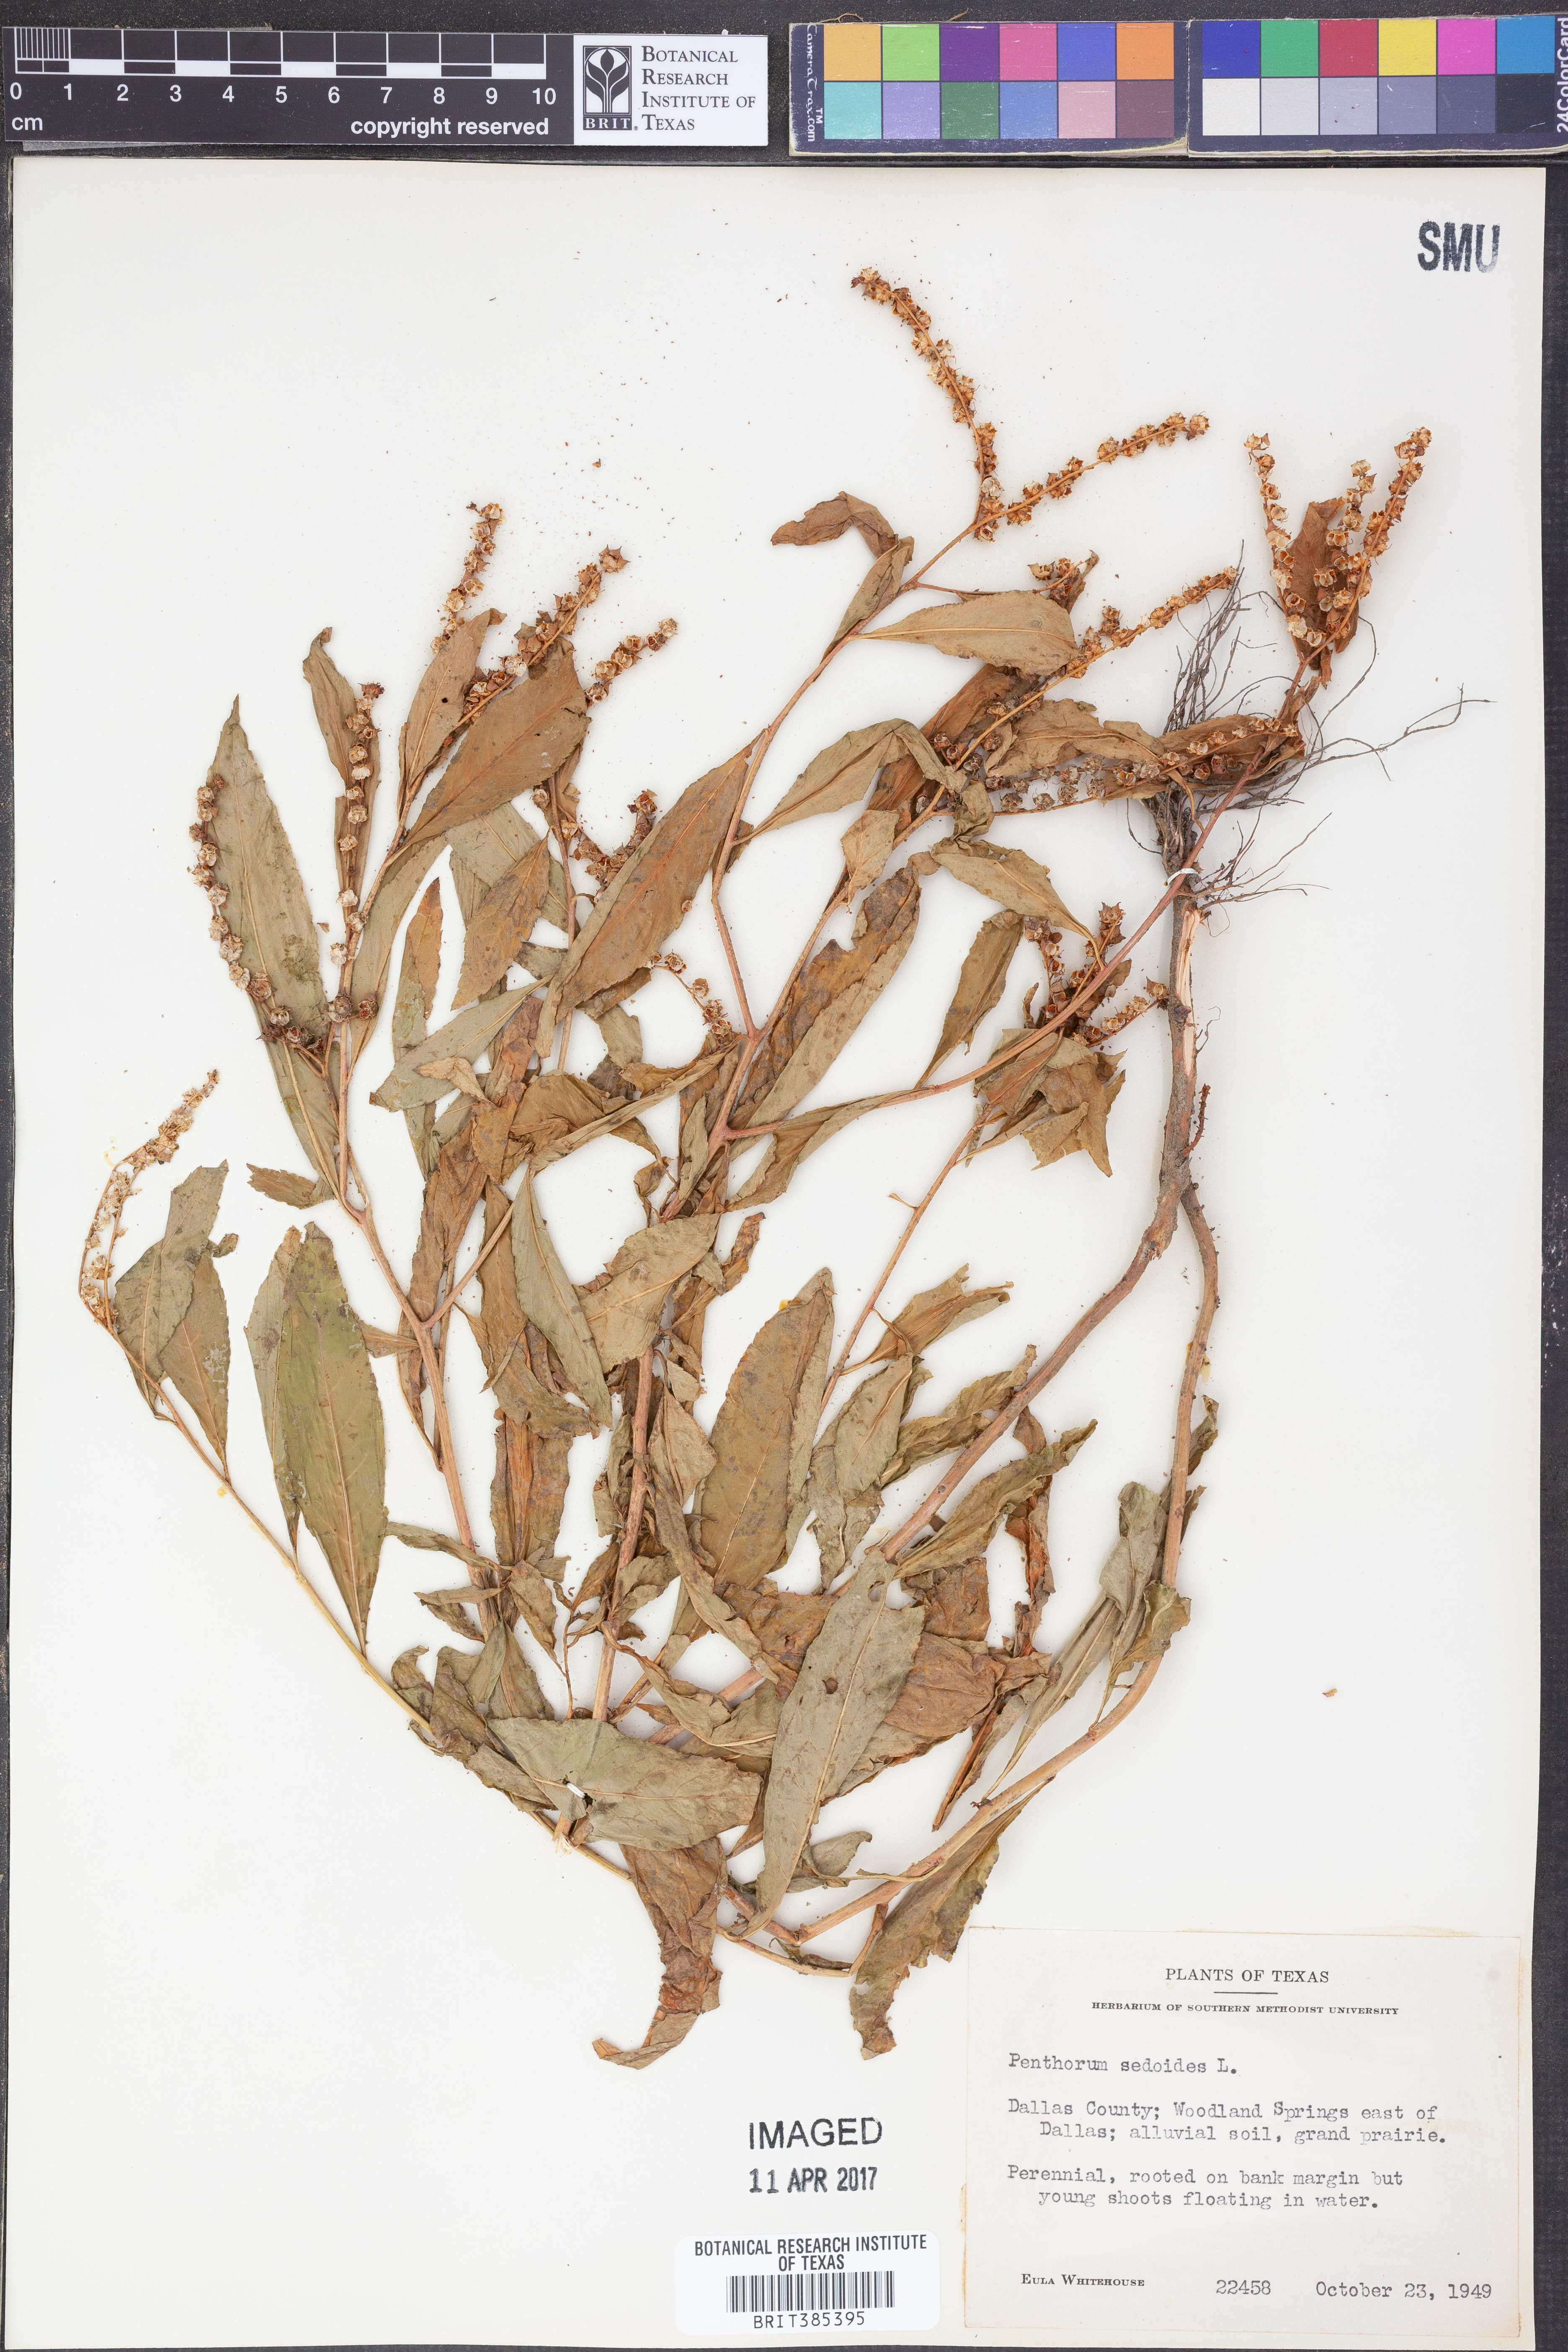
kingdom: Plantae
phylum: Tracheophyta
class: Magnoliopsida
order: Saxifragales
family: Penthoraceae
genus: Penthorum
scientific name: Penthorum sedoides
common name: Ditch stonecrop
